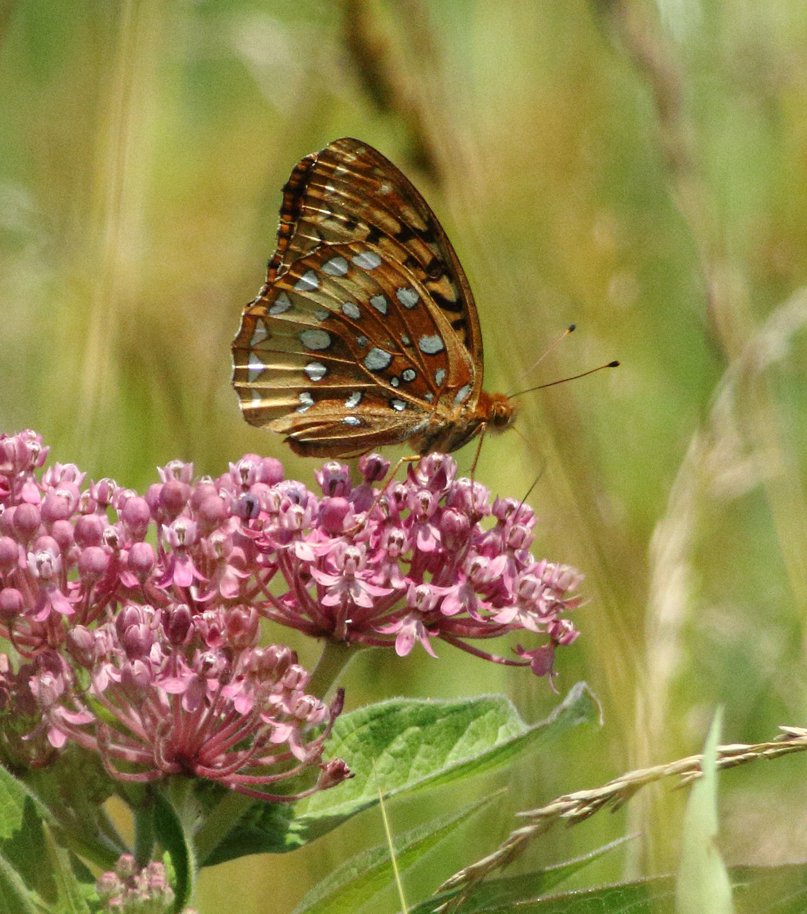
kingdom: Animalia
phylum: Arthropoda
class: Insecta
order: Lepidoptera
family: Nymphalidae
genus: Speyeria
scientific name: Speyeria cybele
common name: Great Spangled Fritillary
